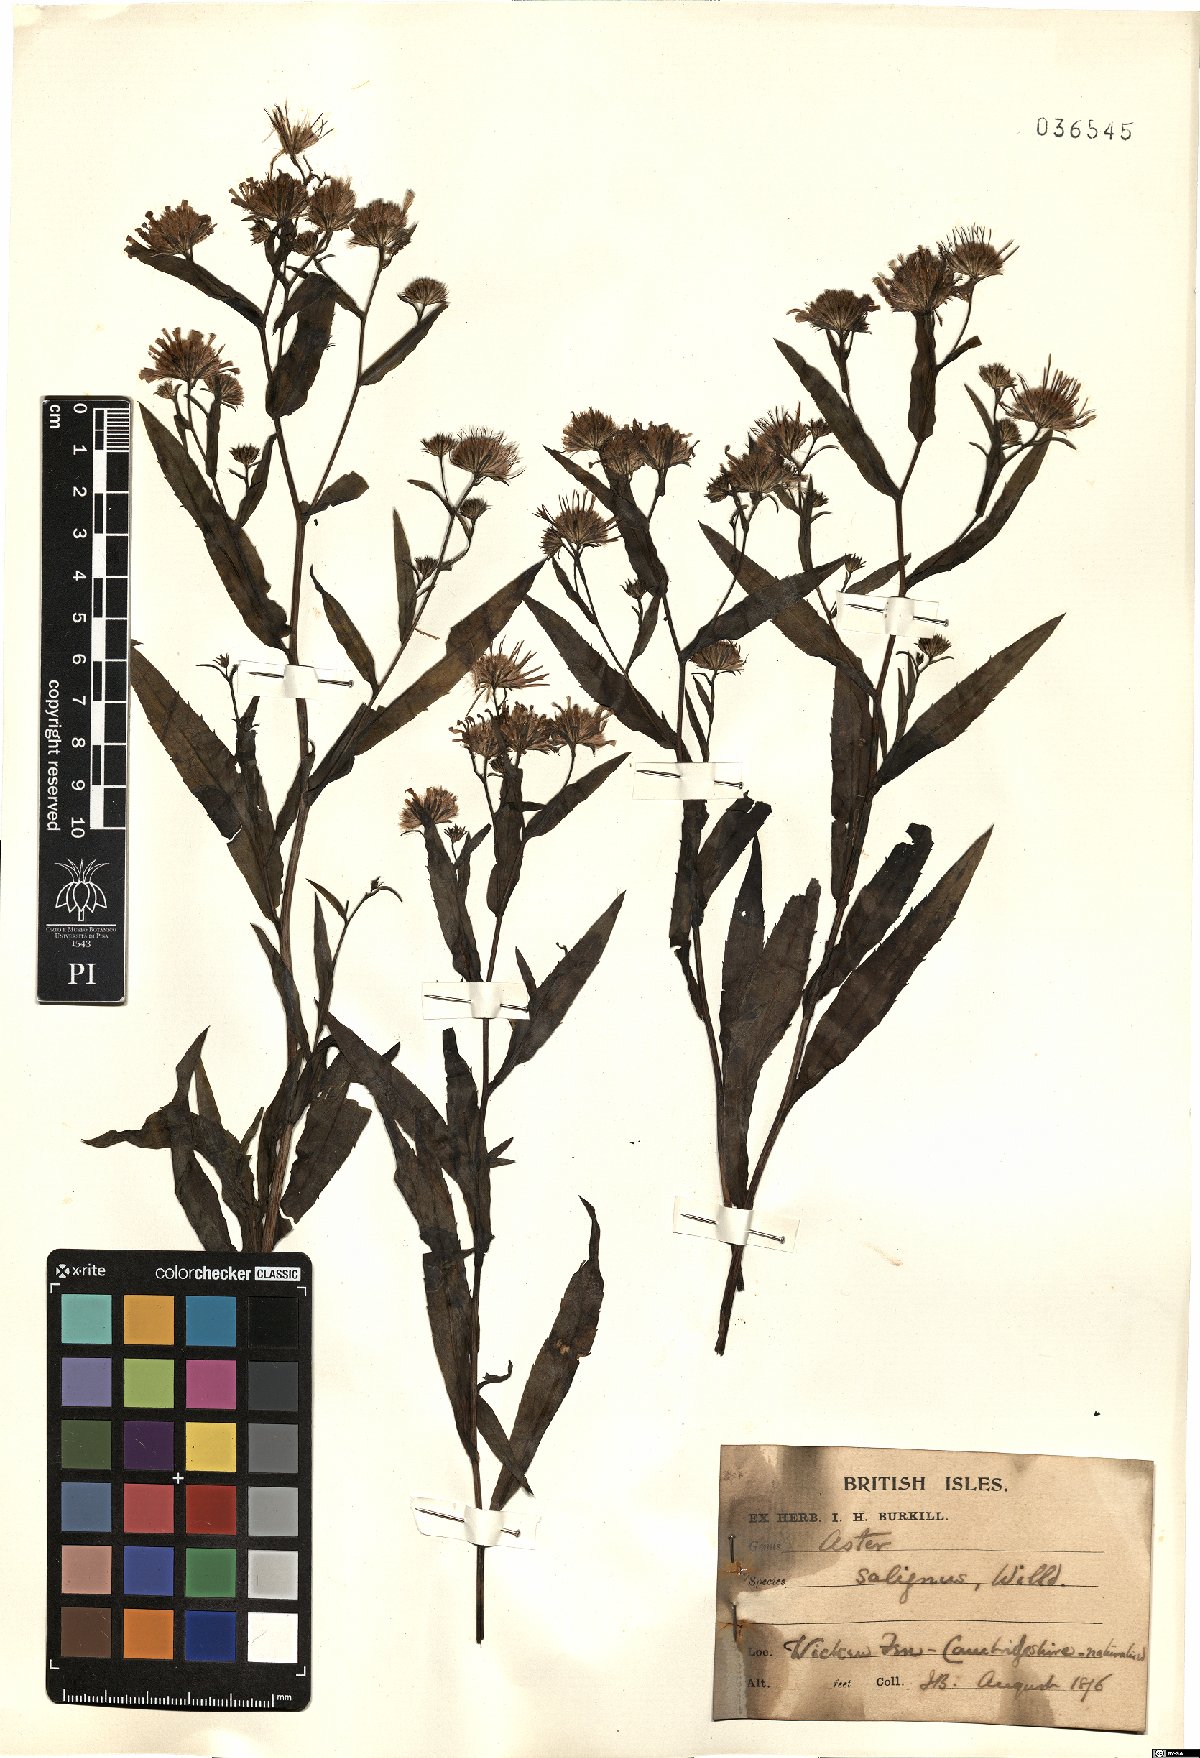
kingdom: Plantae
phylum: Tracheophyta
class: Magnoliopsida
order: Asterales
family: Asteraceae
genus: Symphyotrichum
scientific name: Symphyotrichum salignum
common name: Common michaelmas daisy
